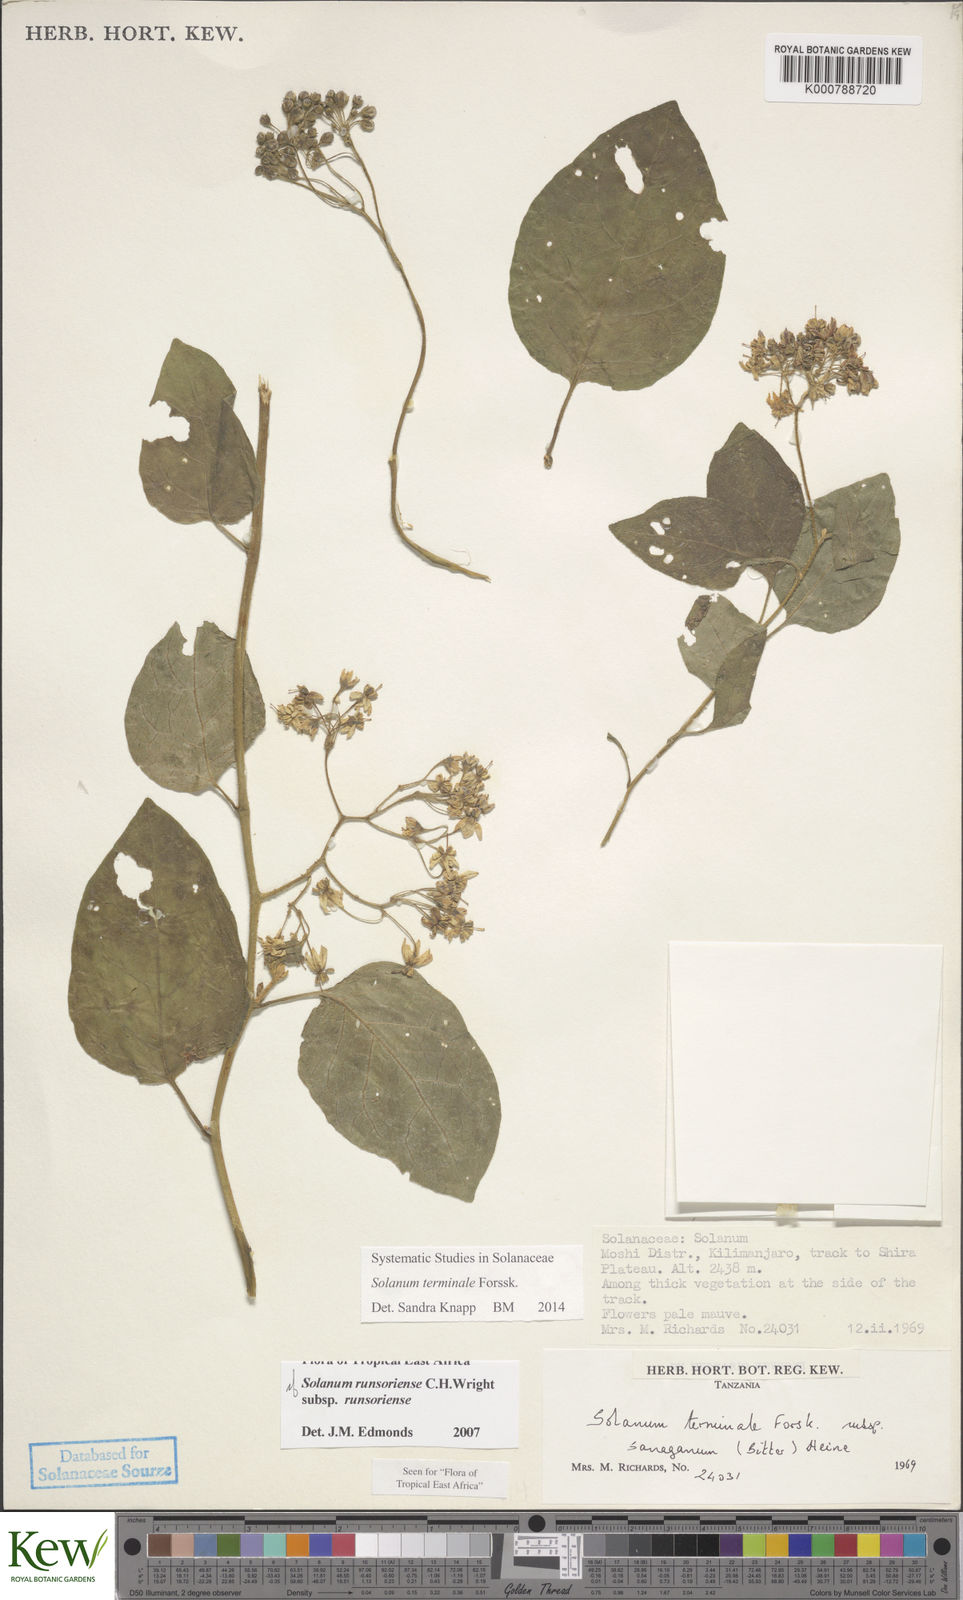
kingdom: Plantae
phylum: Tracheophyta
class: Magnoliopsida
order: Solanales
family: Solanaceae
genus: Solanum
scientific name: Solanum terminale
